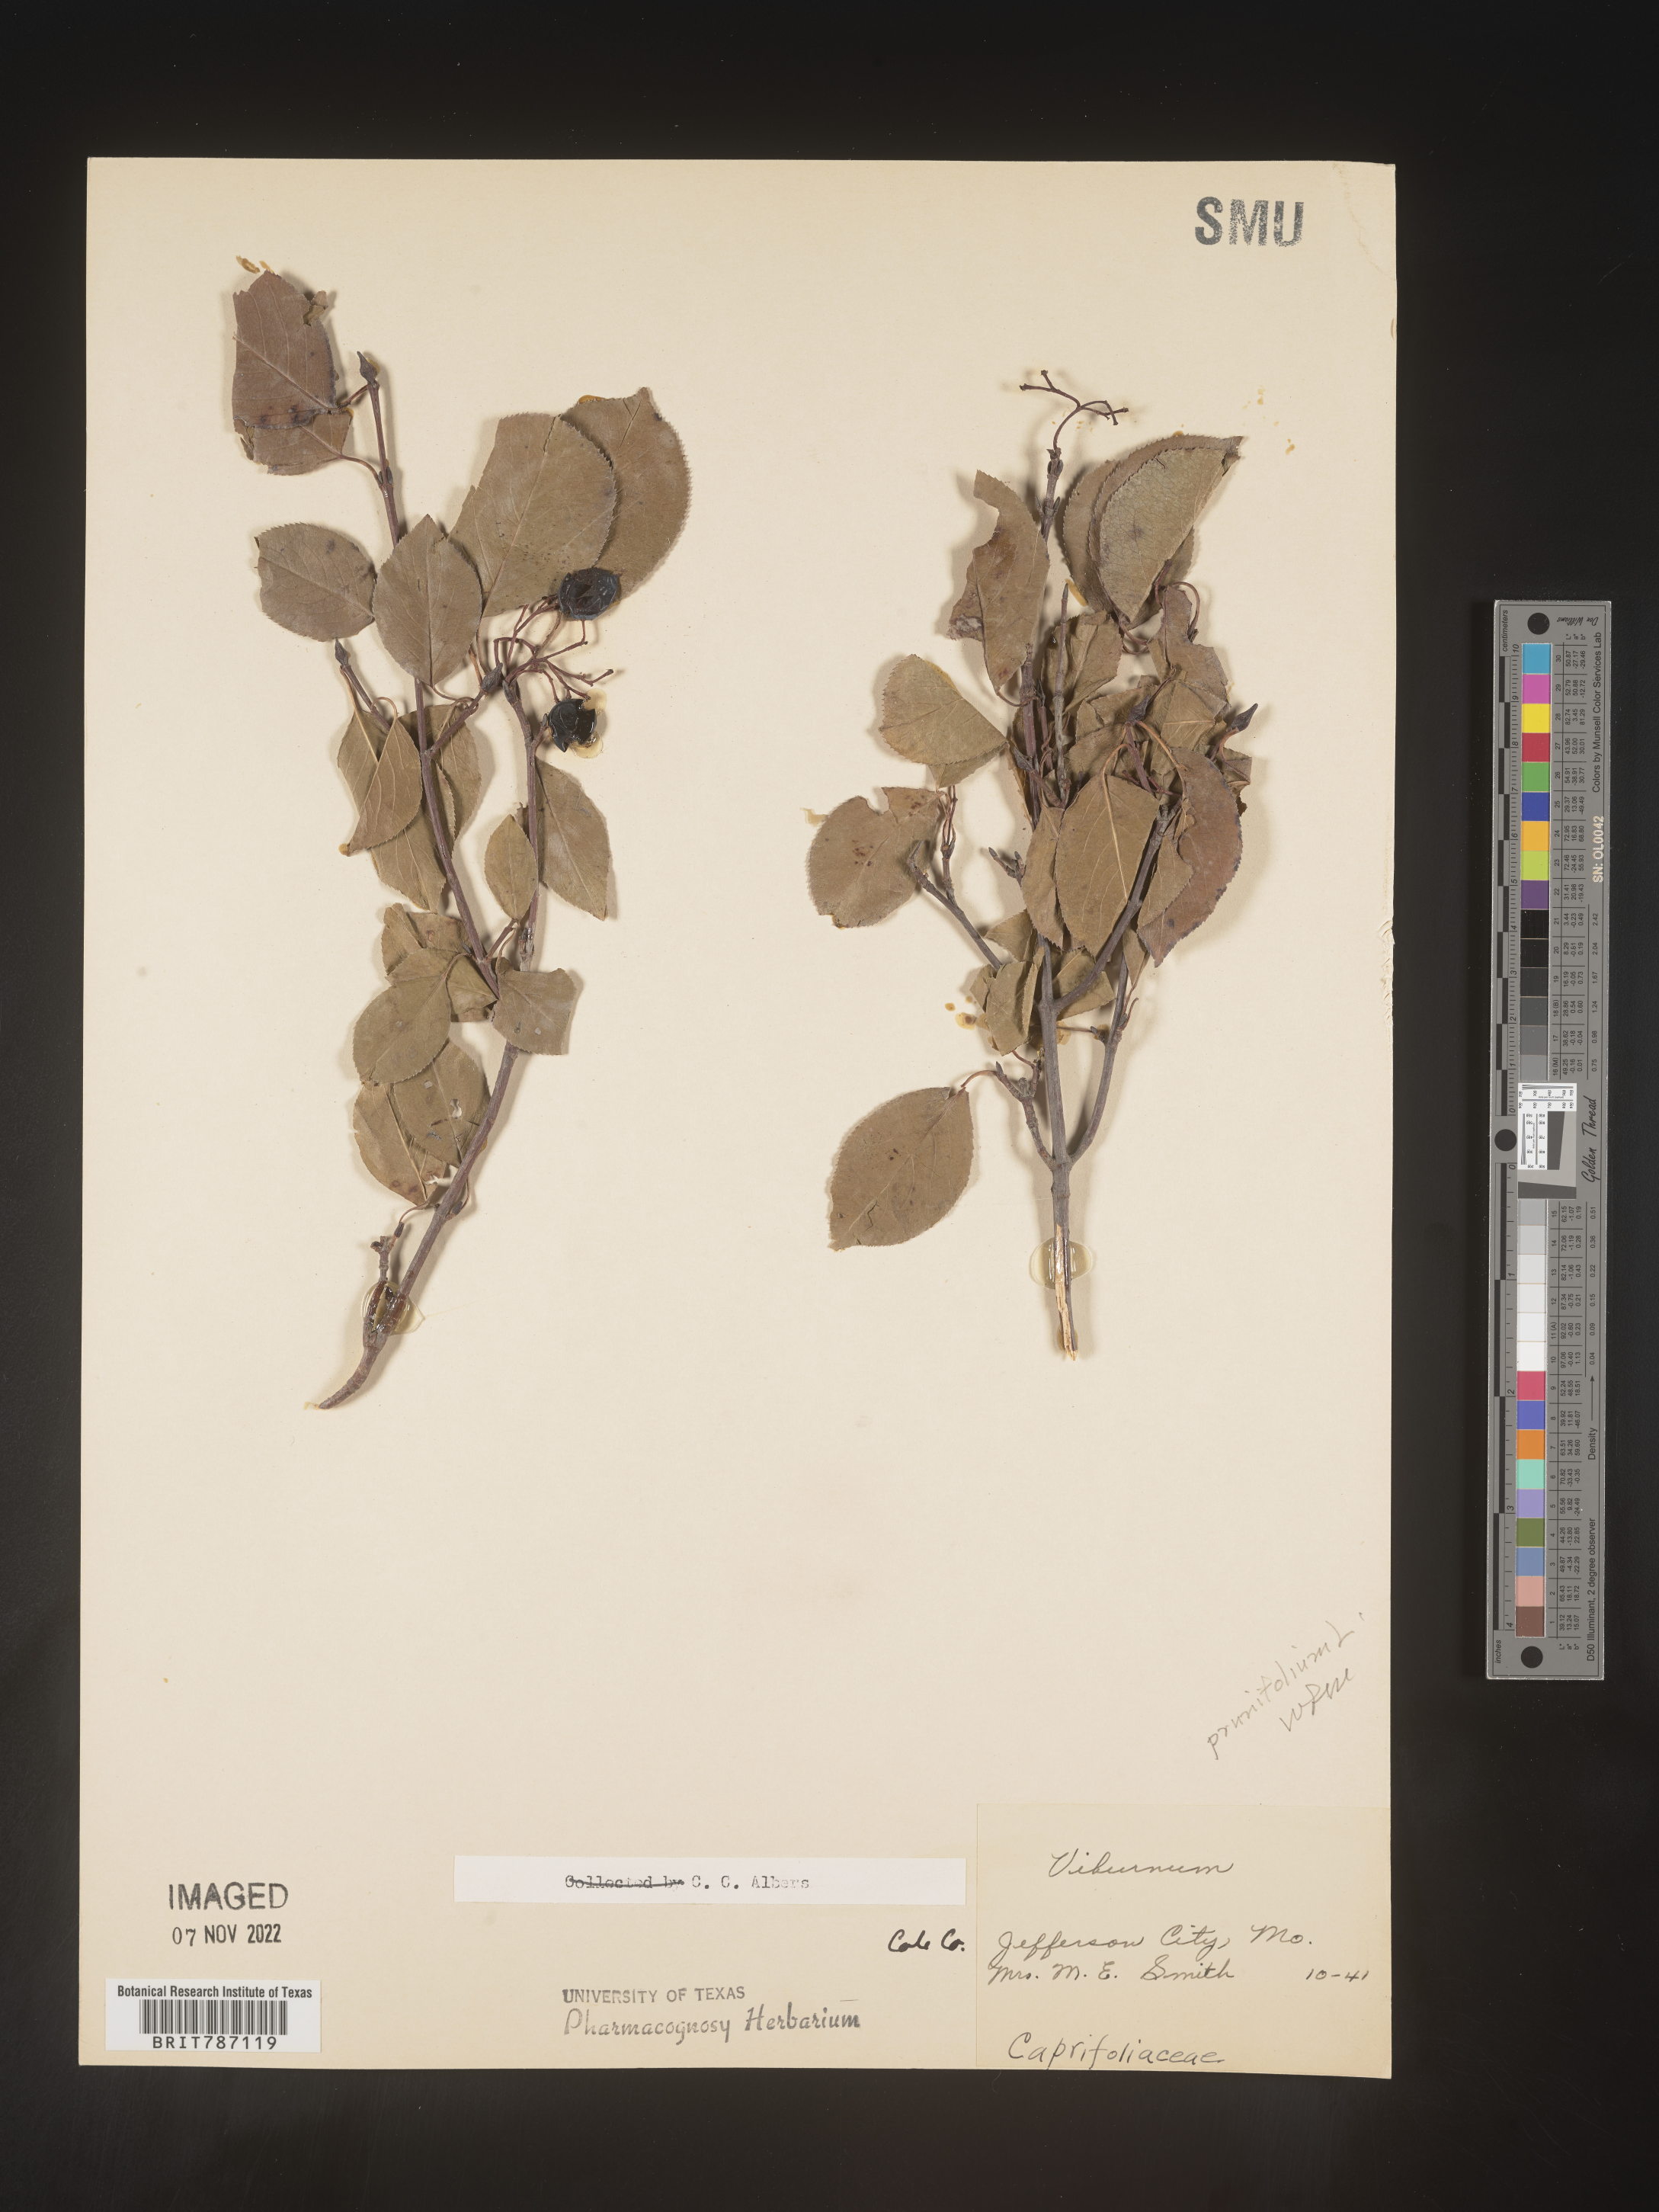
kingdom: Plantae
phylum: Tracheophyta
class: Magnoliopsida
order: Dipsacales
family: Viburnaceae
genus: Viburnum
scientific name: Viburnum prunifolium
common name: Black haw
